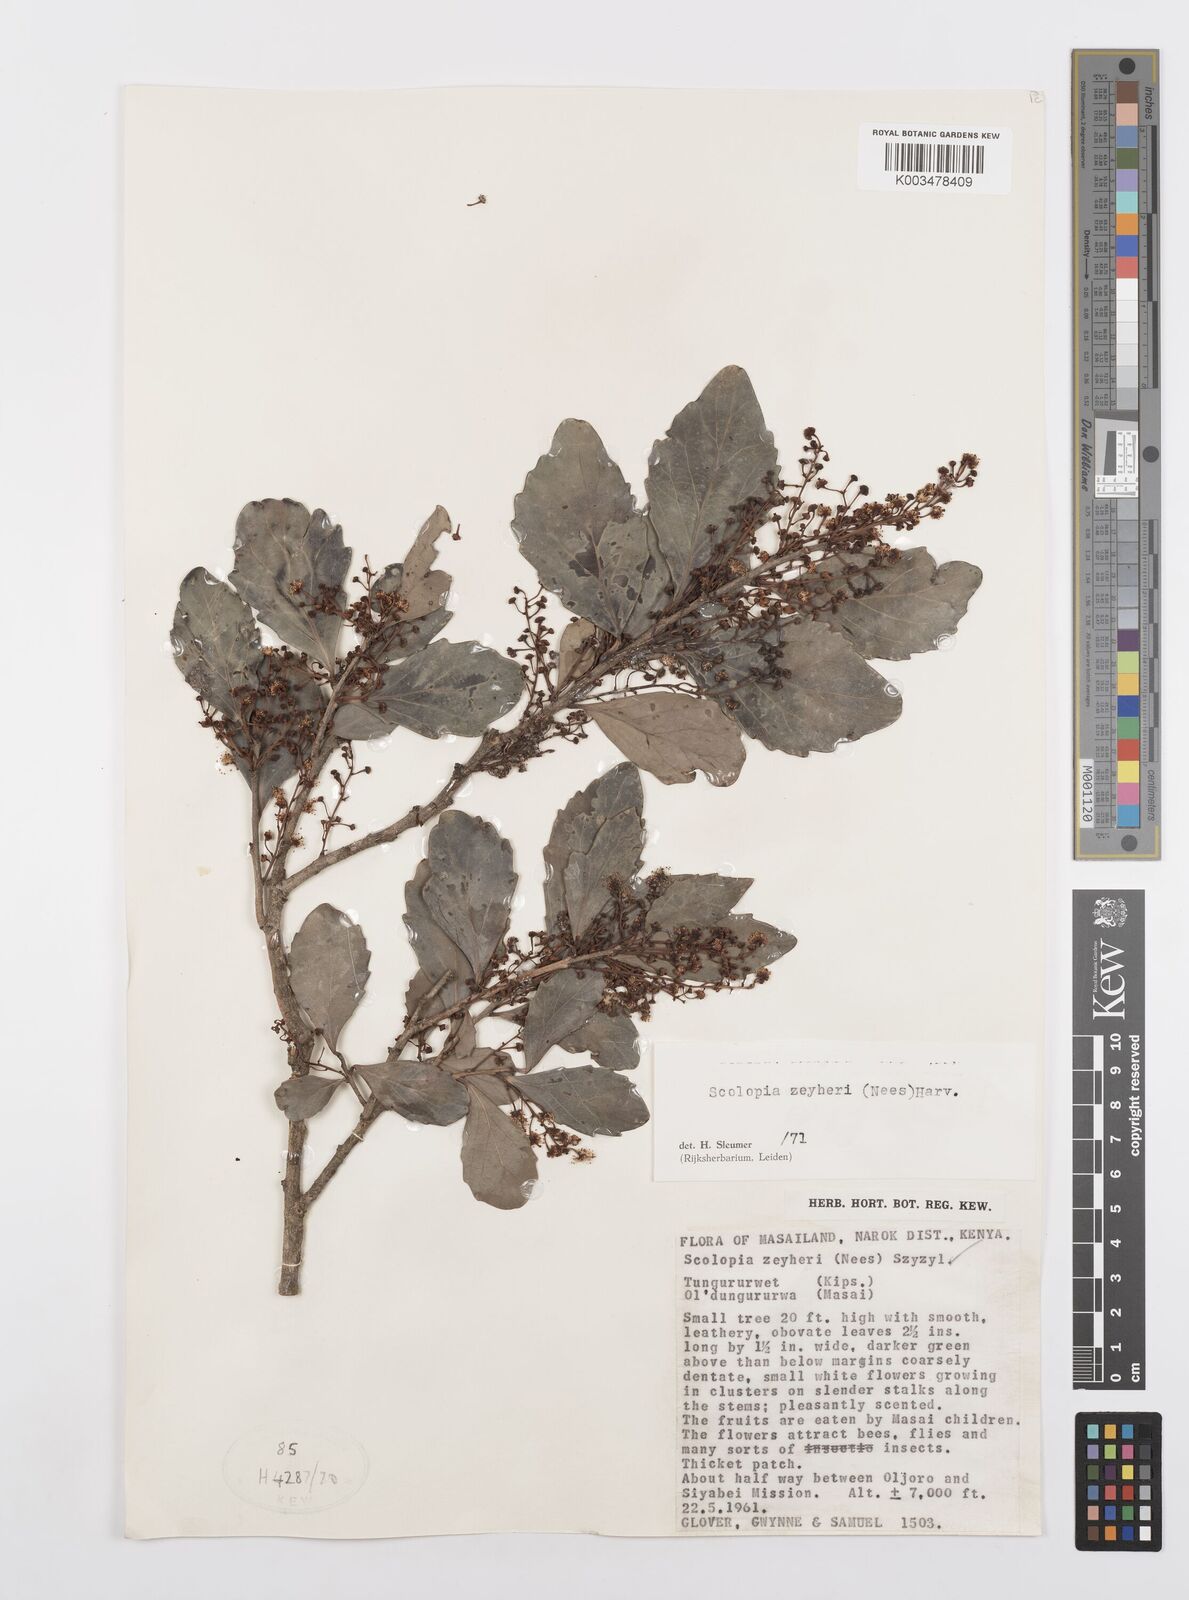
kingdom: Plantae
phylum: Tracheophyta
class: Magnoliopsida
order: Malpighiales
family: Salicaceae
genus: Scolopia
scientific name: Scolopia zeyheri
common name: Thorn pear
